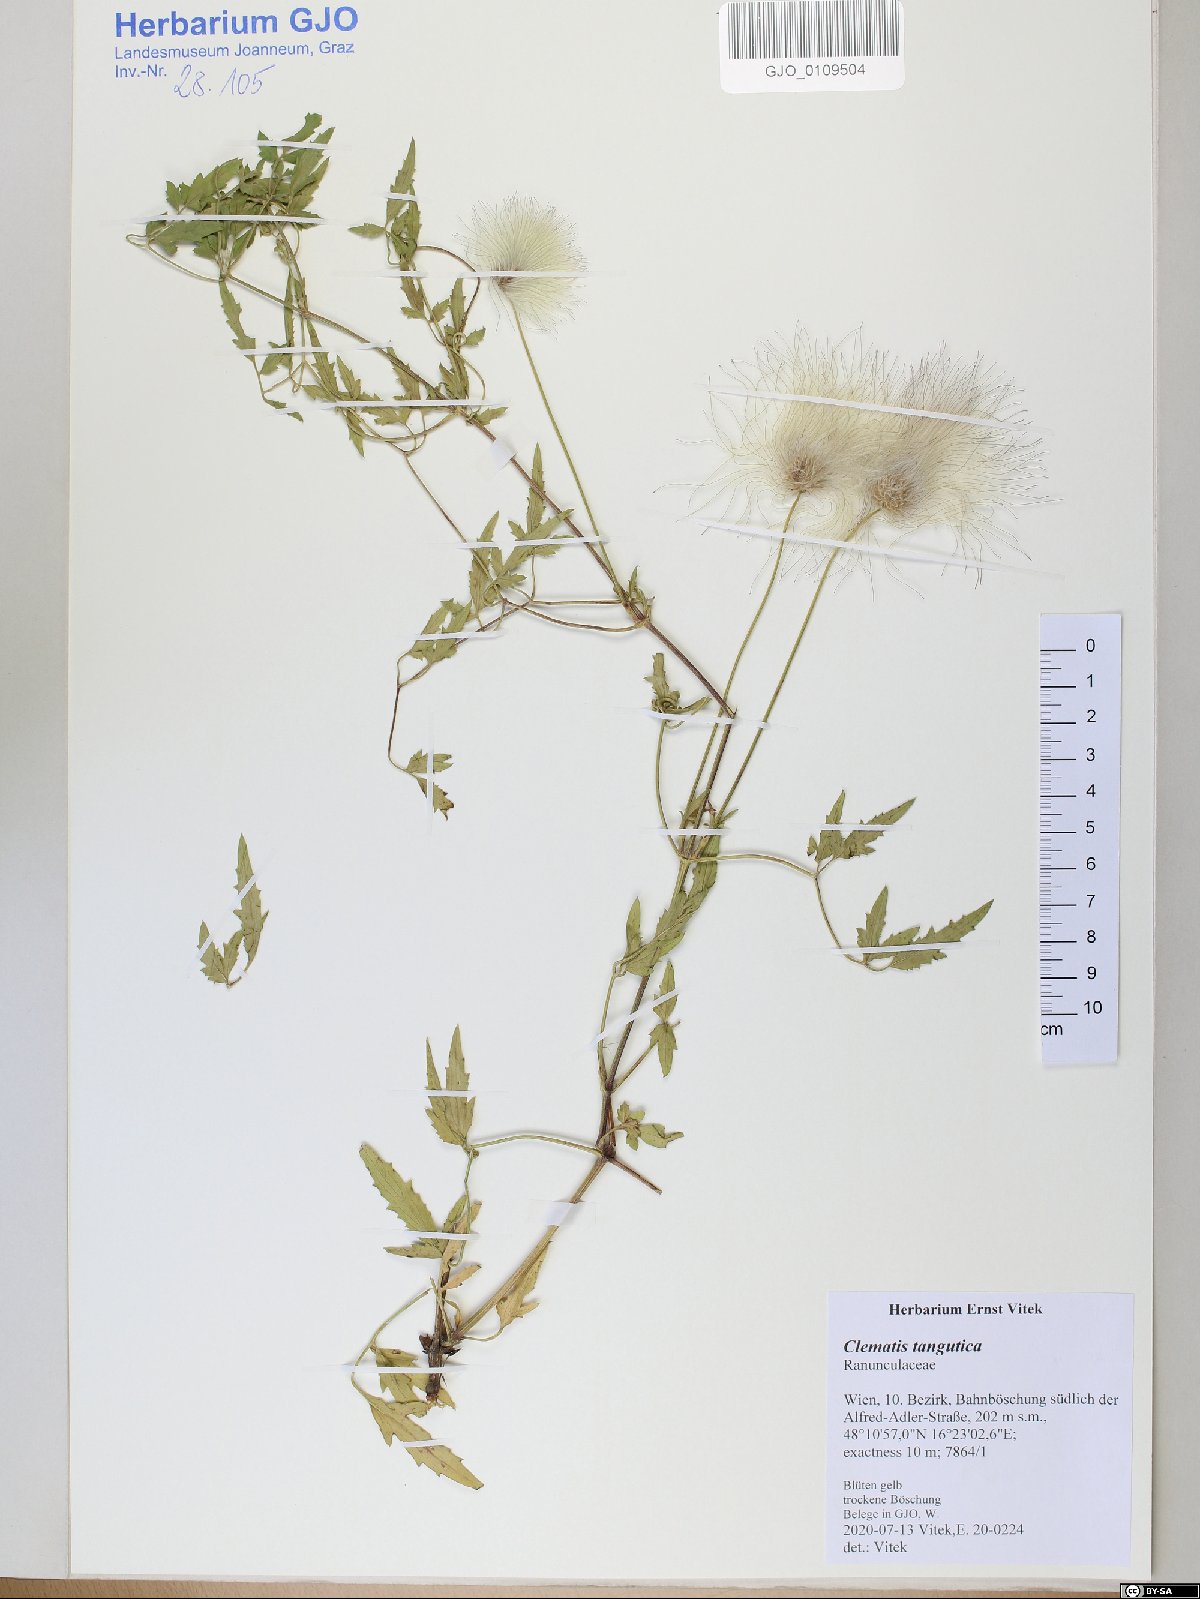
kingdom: Plantae
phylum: Tracheophyta
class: Magnoliopsida
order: Ranunculales
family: Ranunculaceae
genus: Clematis
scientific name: Clematis tangutica
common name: Orange-peel clematis
